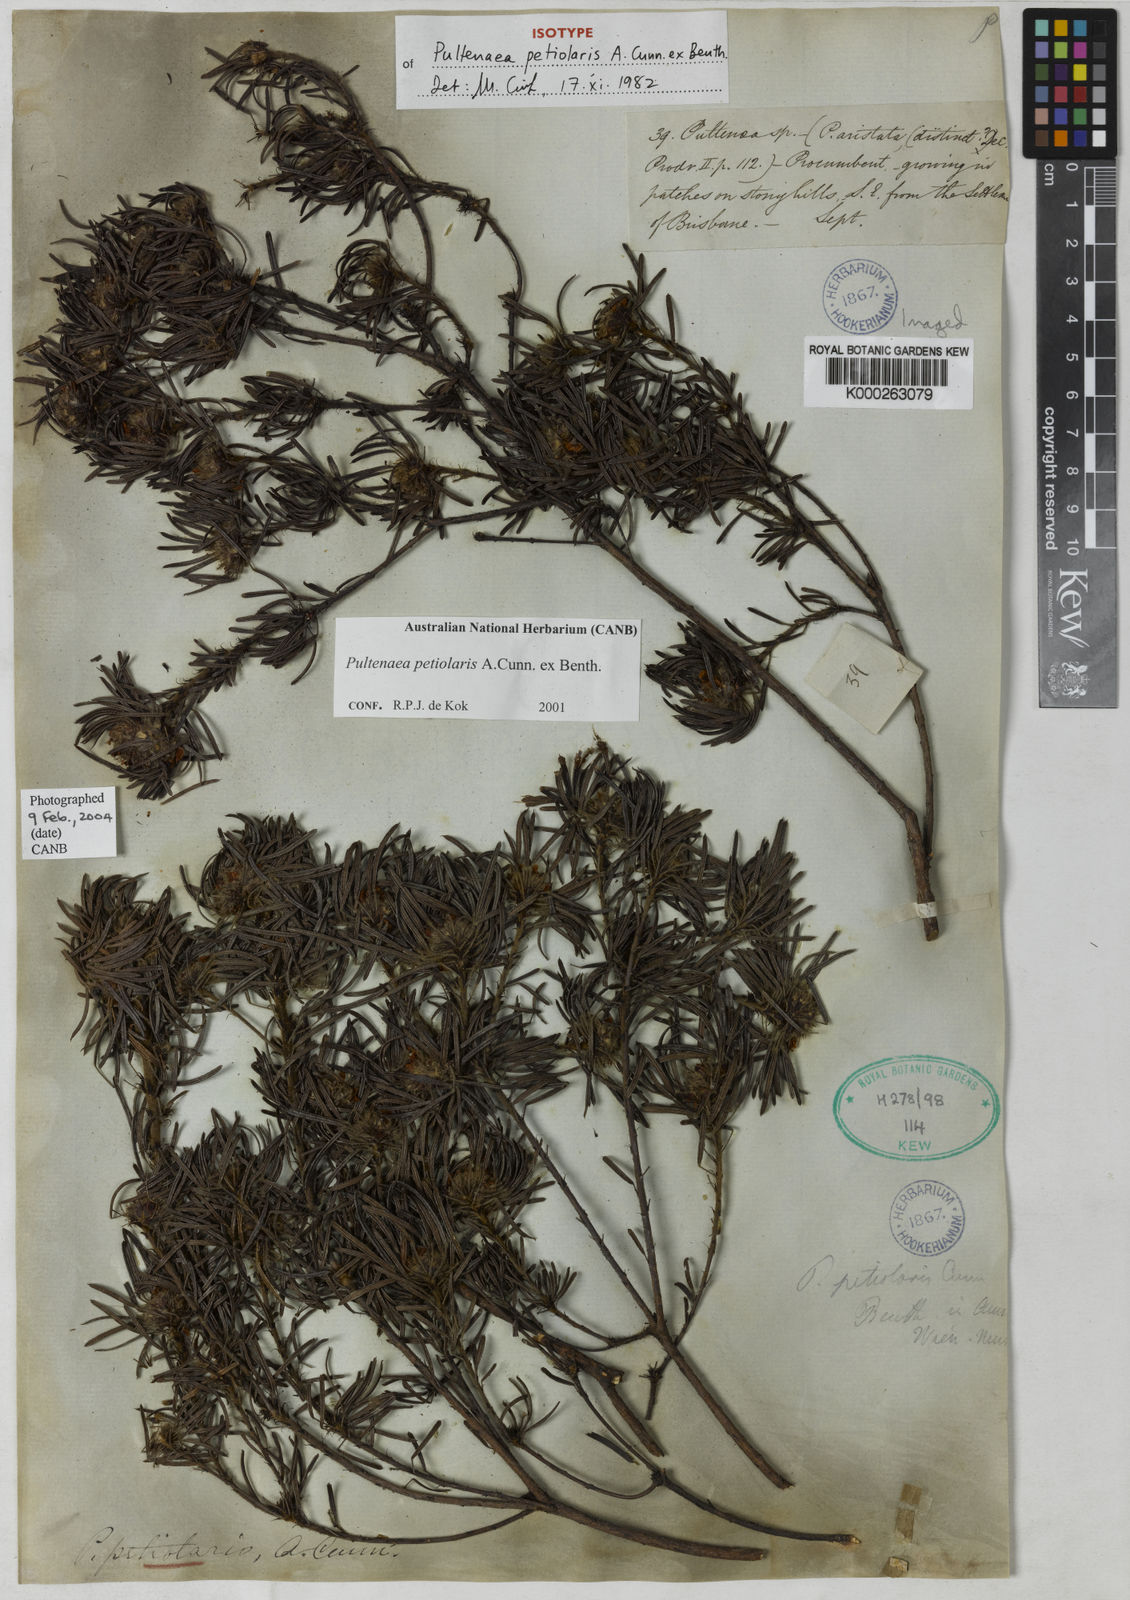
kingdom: Plantae
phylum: Tracheophyta
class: Magnoliopsida
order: Fabales
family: Fabaceae
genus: Pultenaea
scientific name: Pultenaea petiolaris
